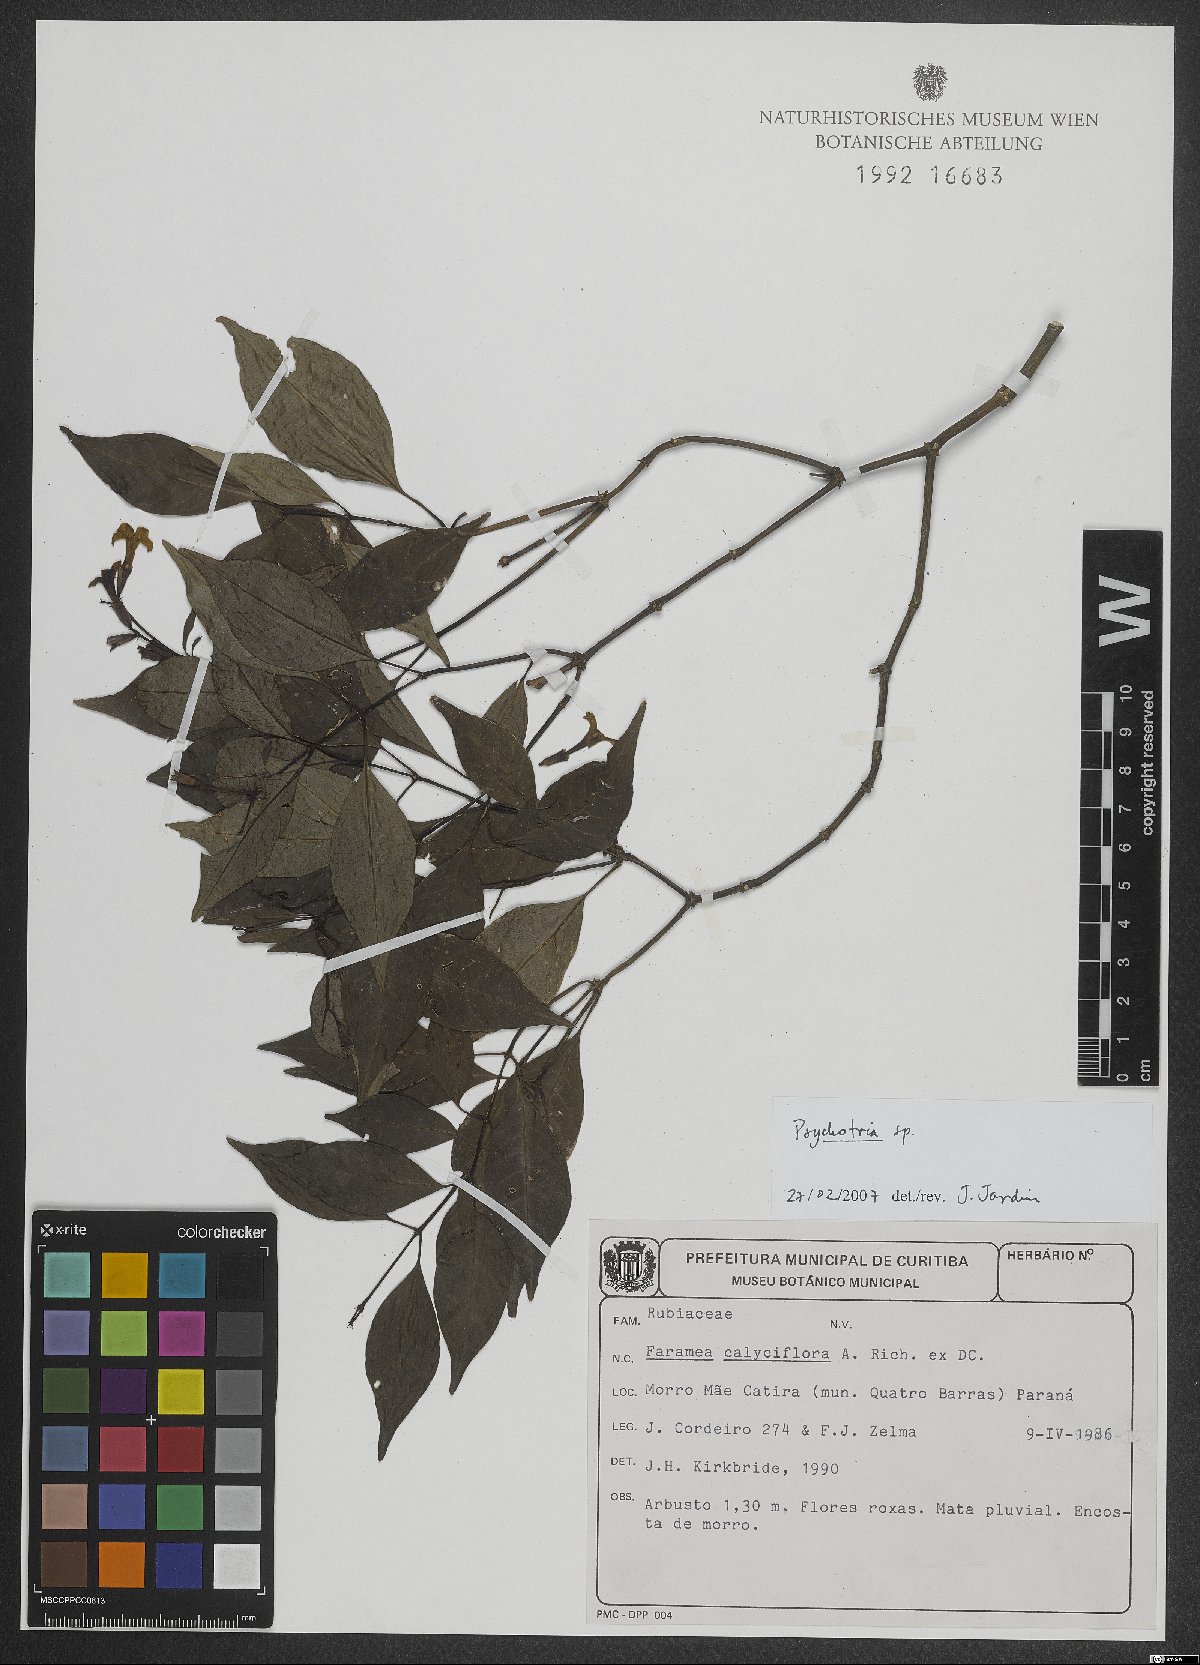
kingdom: Plantae
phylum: Tracheophyta
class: Magnoliopsida
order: Gentianales
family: Rubiaceae
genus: Psychotria
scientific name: Psychotria
